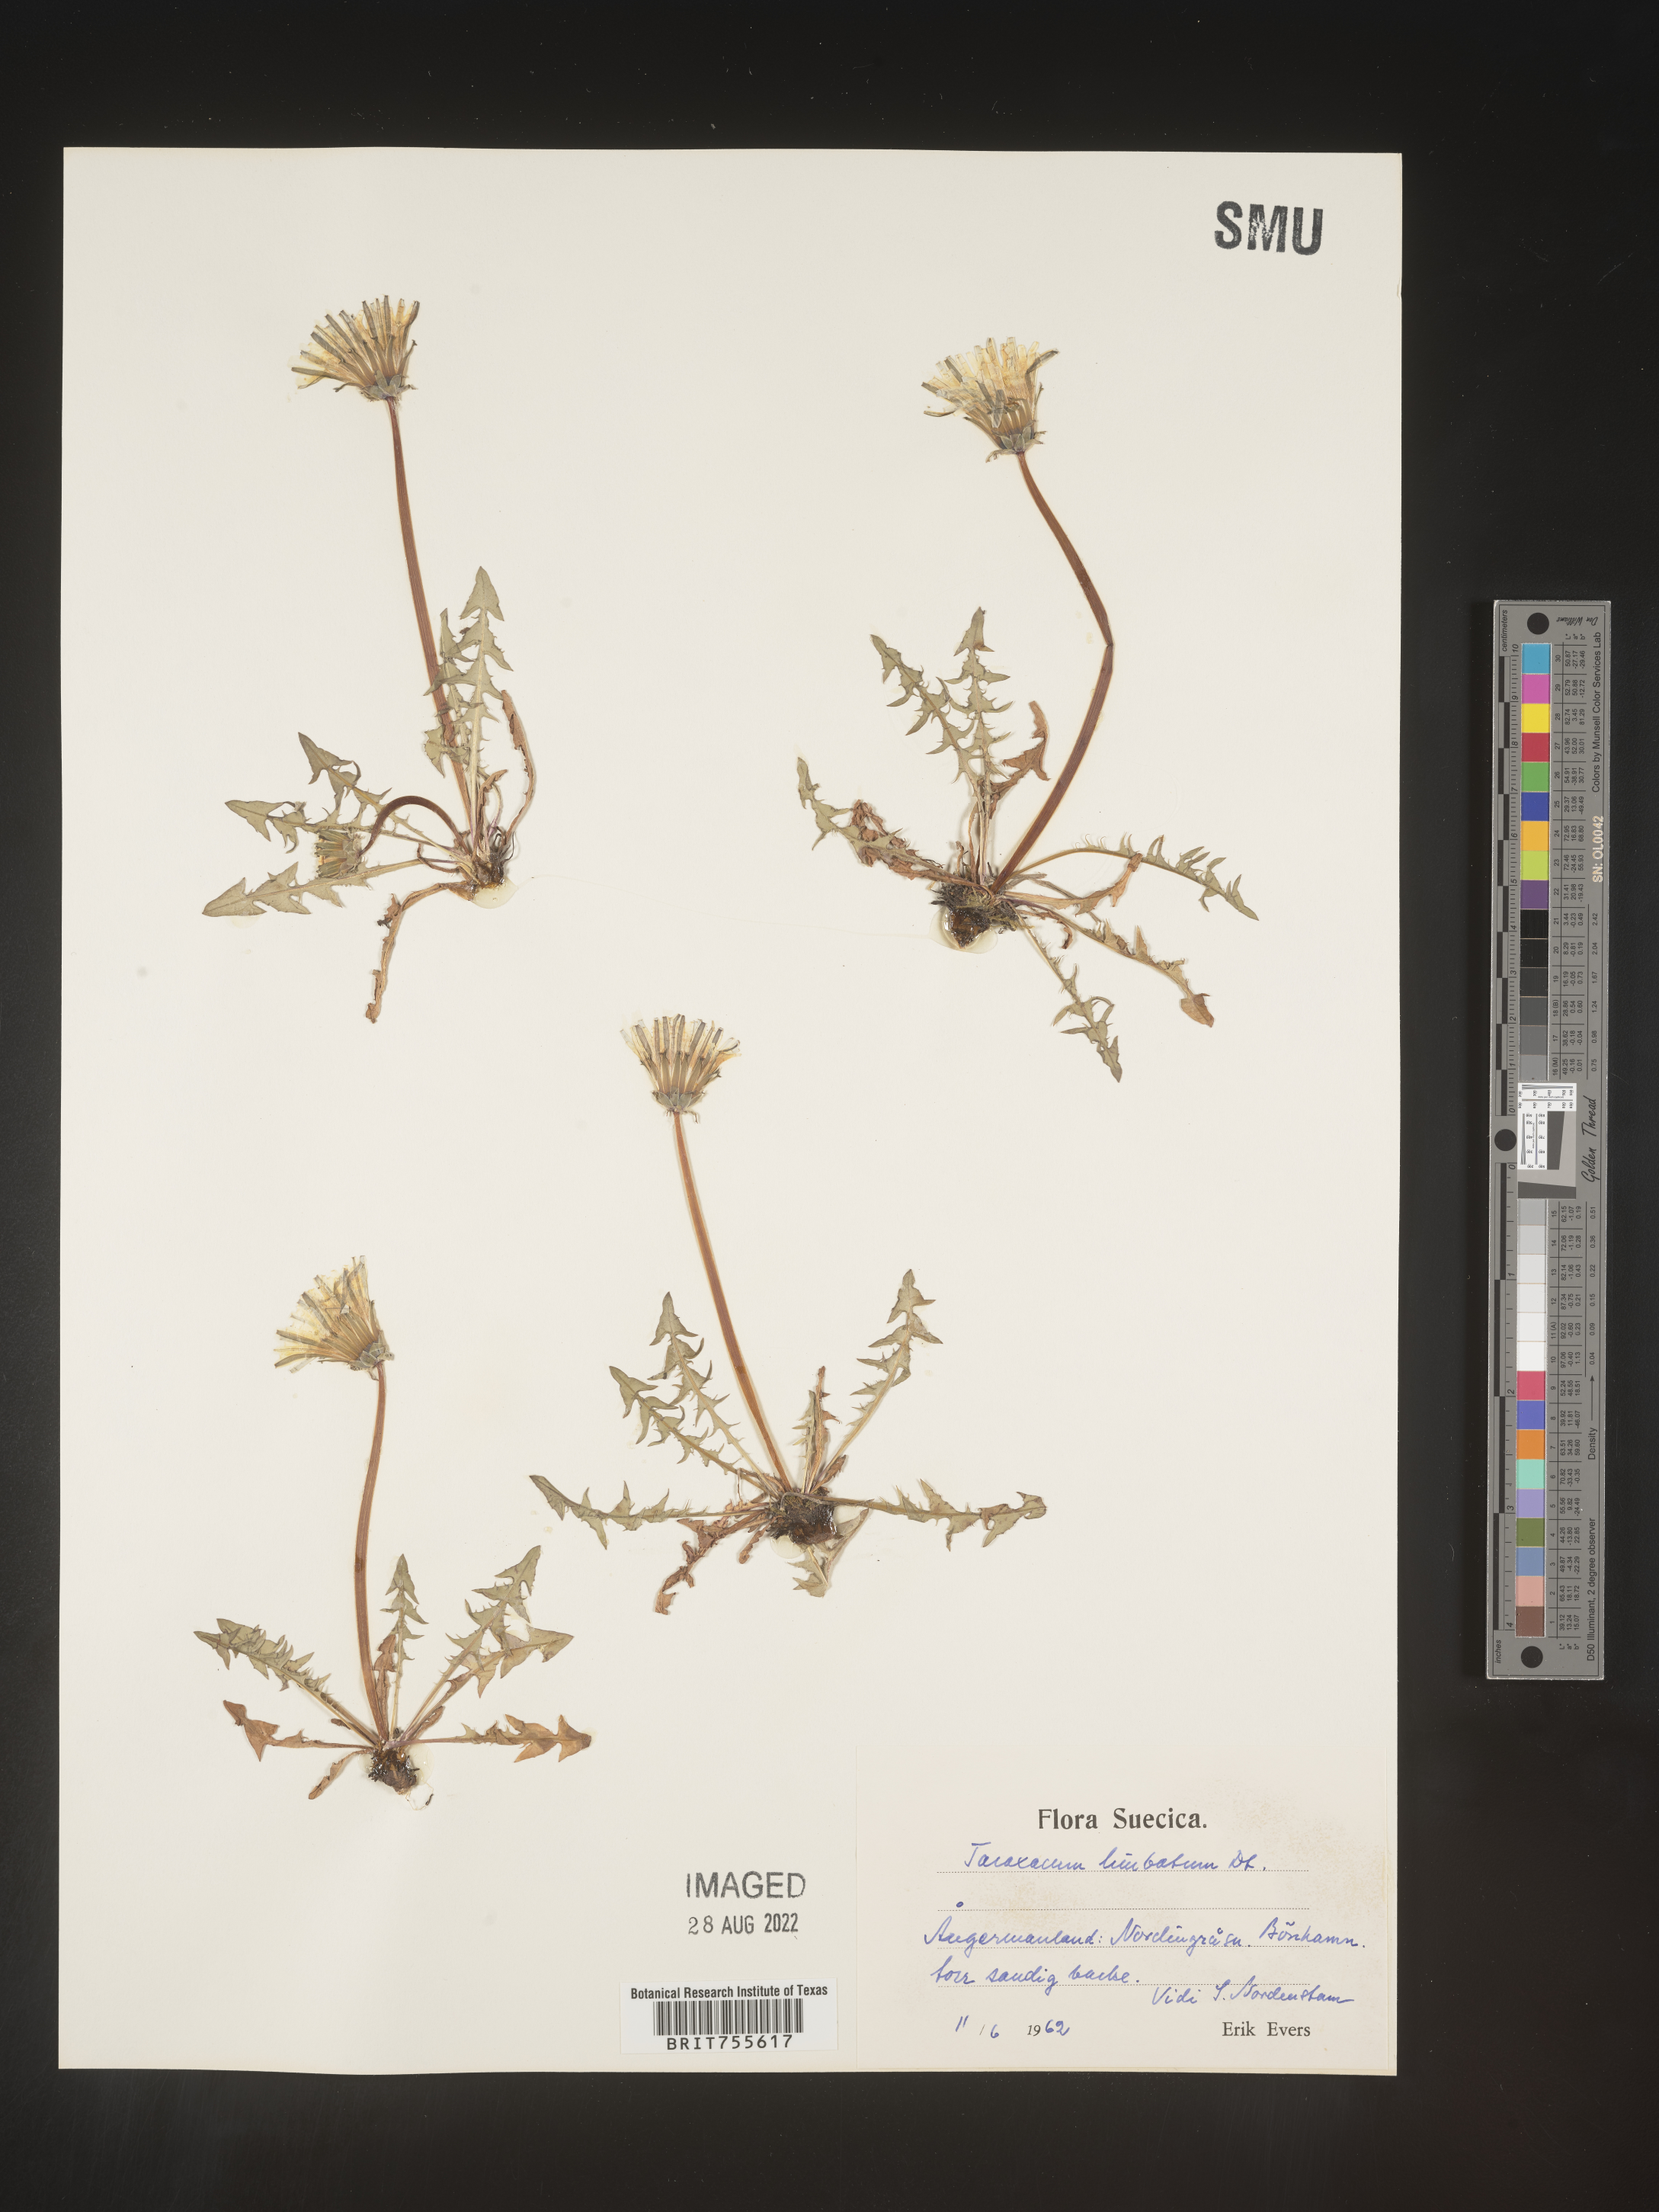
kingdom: Plantae
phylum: Tracheophyta
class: Magnoliopsida
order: Asterales
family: Asteraceae
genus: Taraxacum
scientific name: Taraxacum
